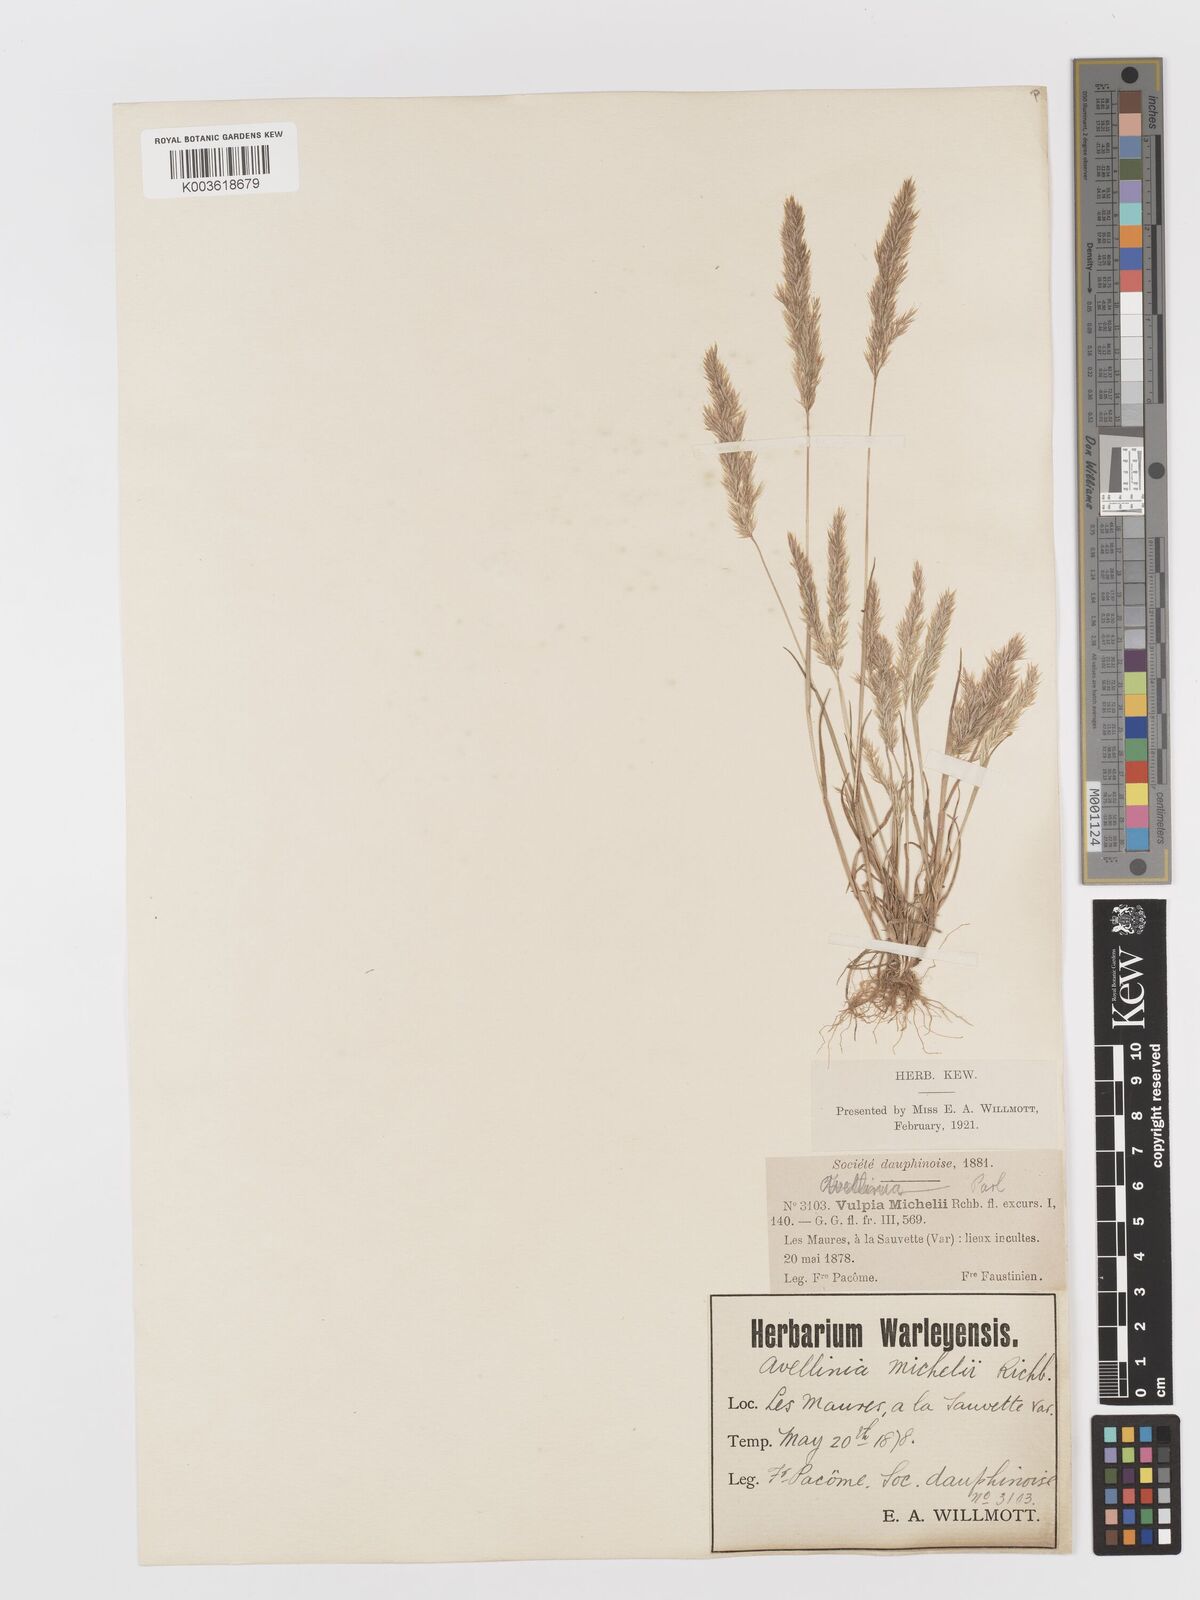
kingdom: Plantae
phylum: Tracheophyta
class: Liliopsida
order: Poales
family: Poaceae
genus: Avellinia
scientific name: Avellinia festucoides
